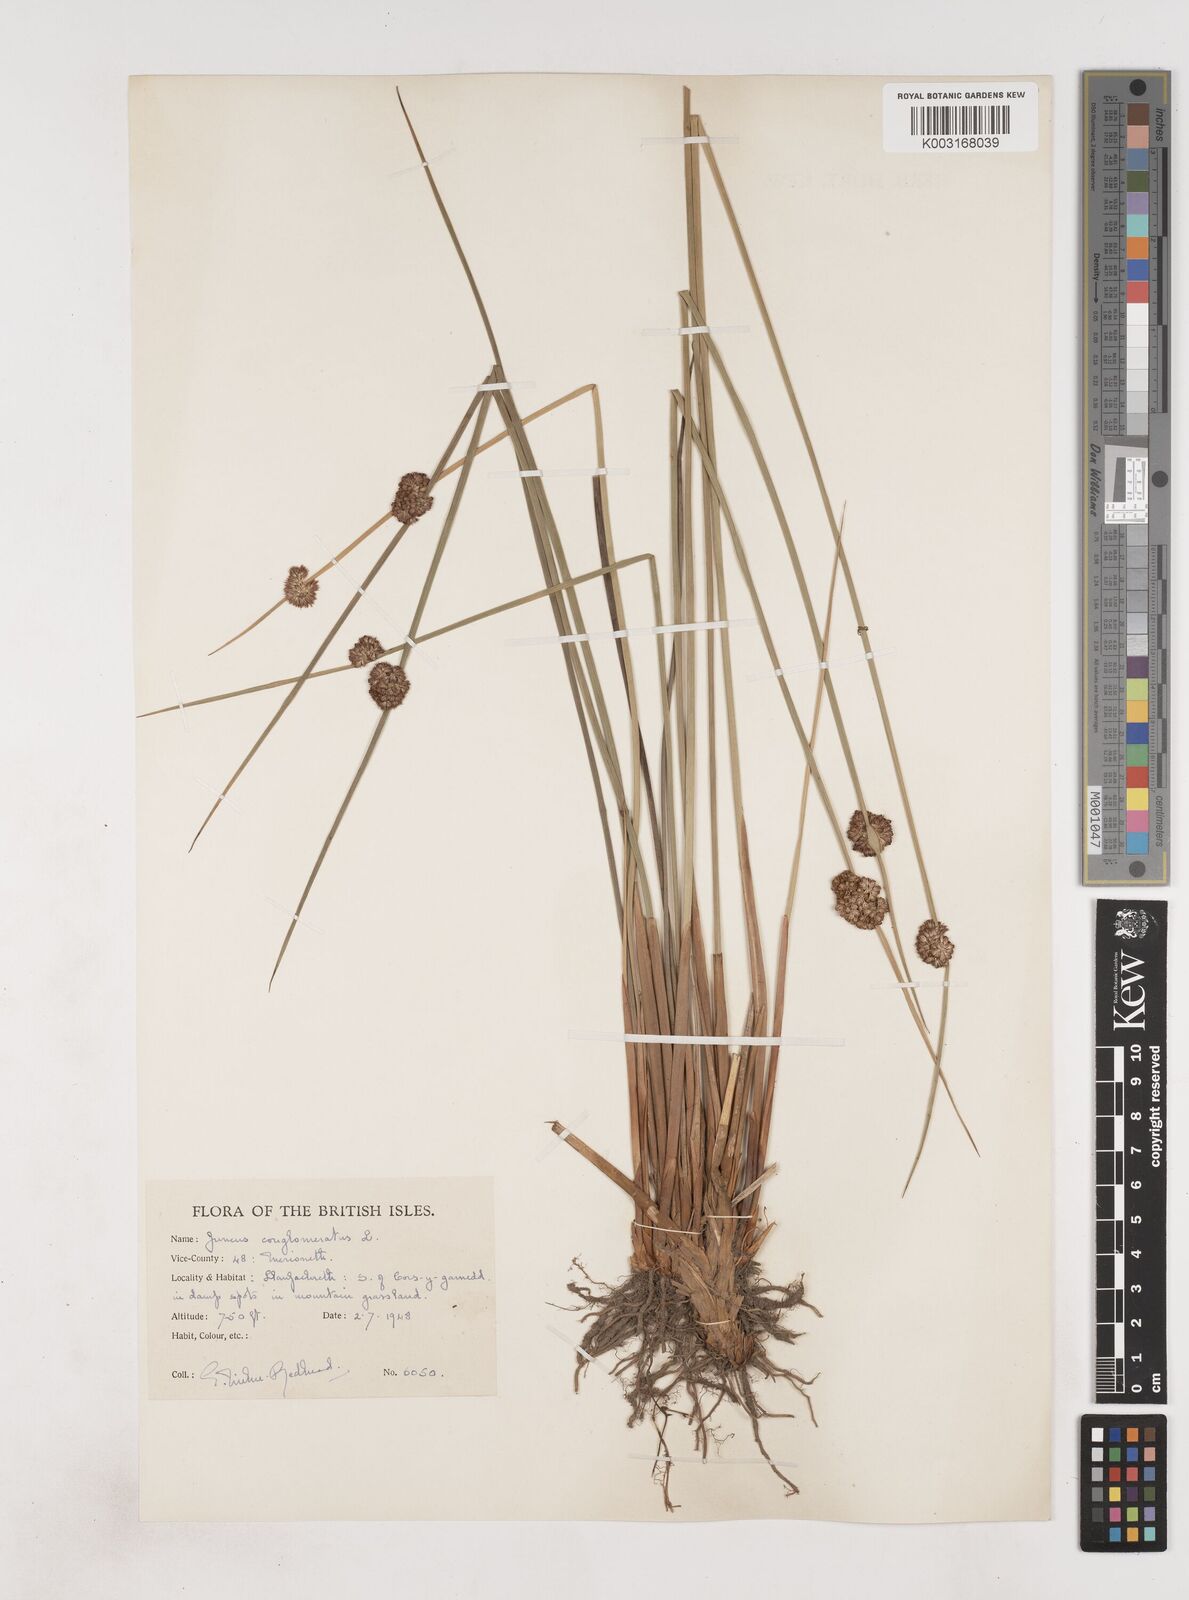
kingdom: Plantae
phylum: Tracheophyta
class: Liliopsida
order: Poales
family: Juncaceae
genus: Juncus
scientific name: Juncus conglomeratus
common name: Compact rush
